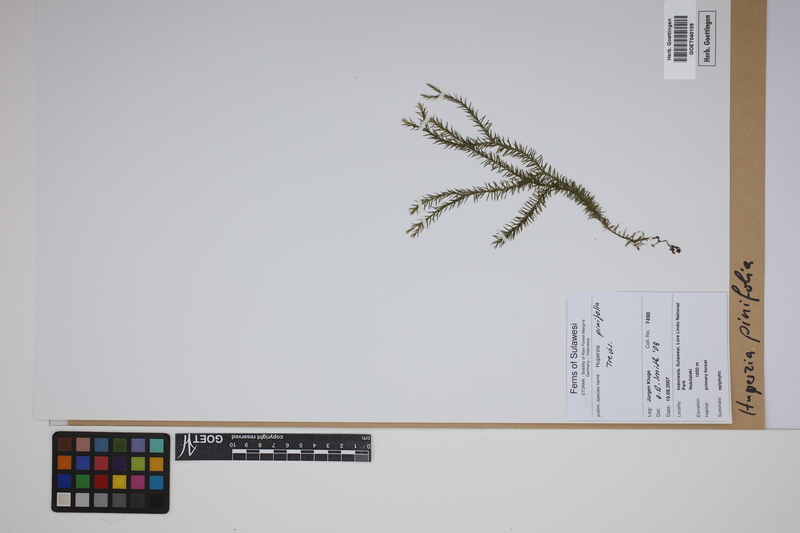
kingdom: Plantae
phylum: Tracheophyta
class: Lycopodiopsida
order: Lycopodiales
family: Lycopodiaceae
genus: Phlegmariurus
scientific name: Phlegmariurus pinifolius
